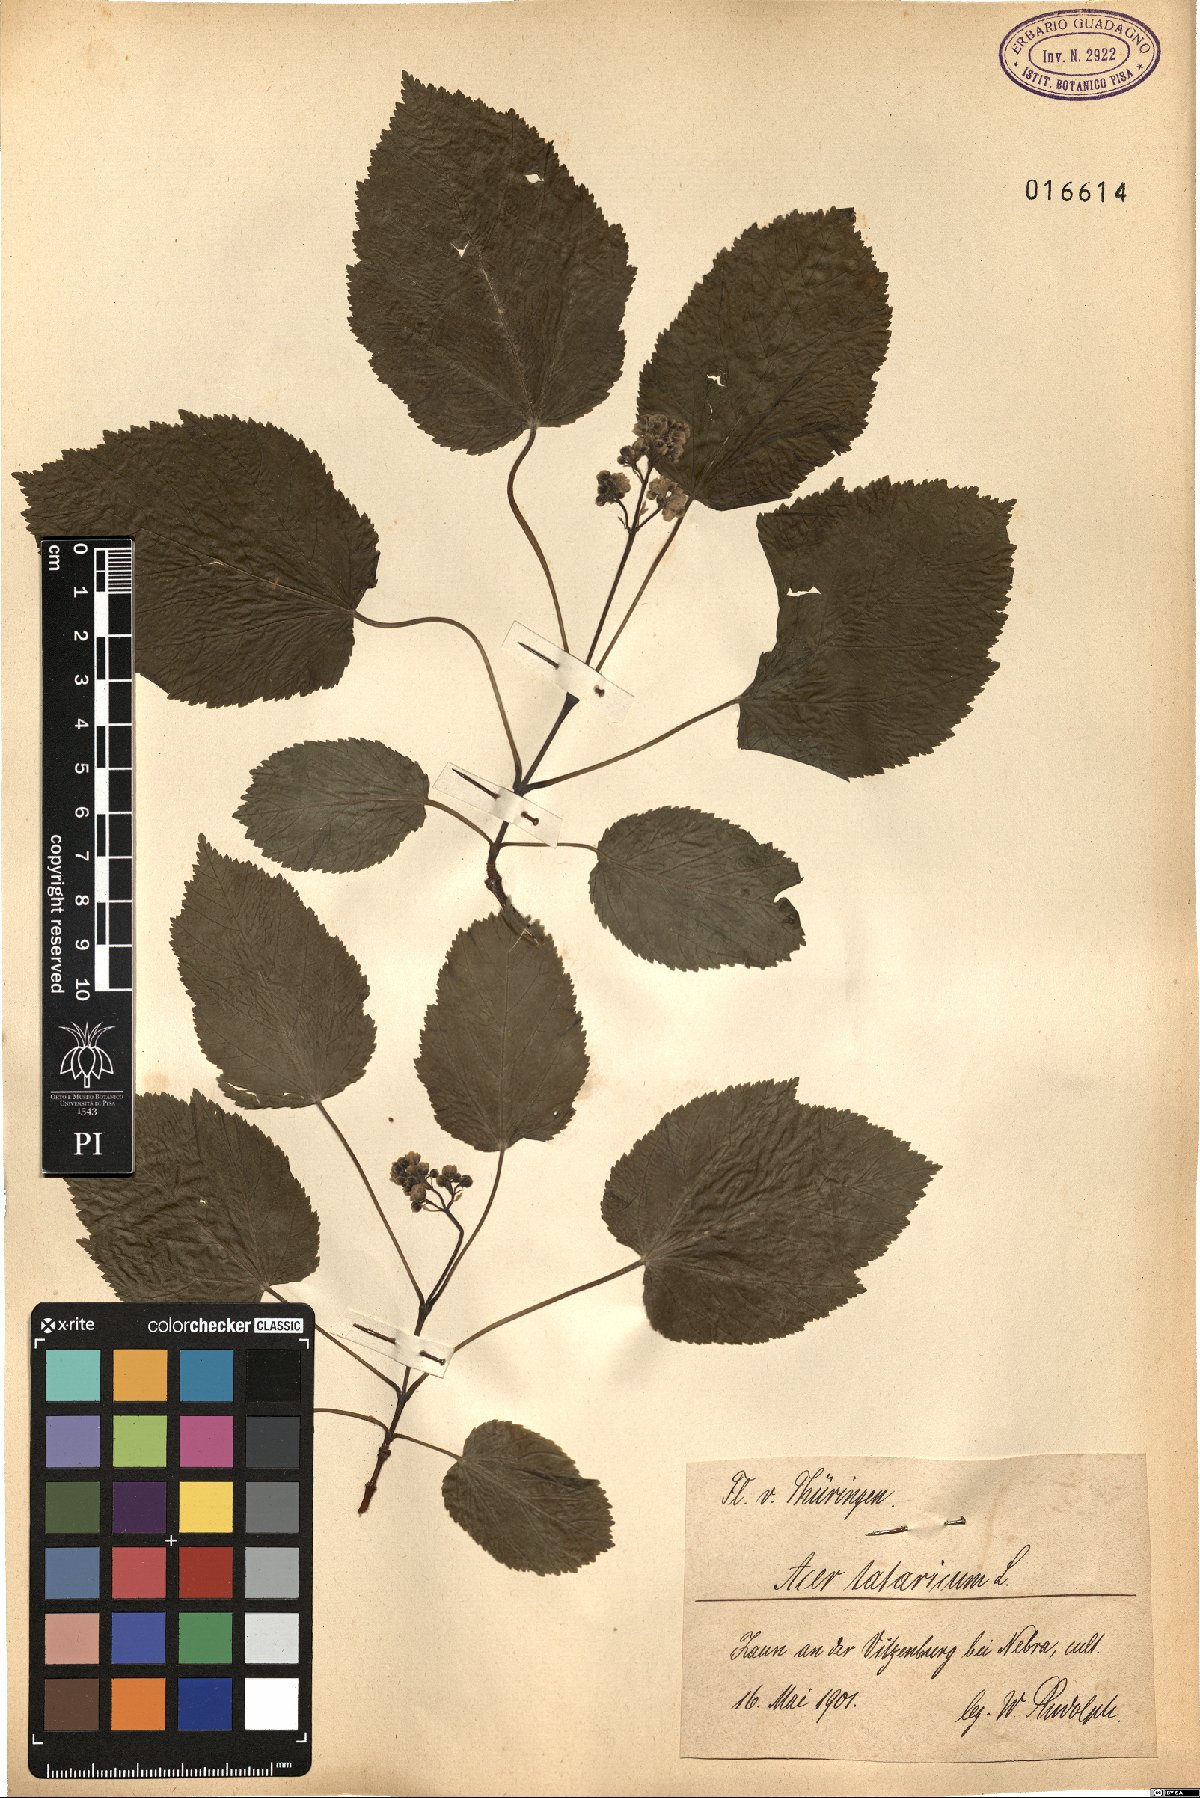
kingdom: Plantae
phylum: Tracheophyta
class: Magnoliopsida
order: Sapindales
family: Sapindaceae
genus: Acer
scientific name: Acer tataricum
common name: Tartar maple
